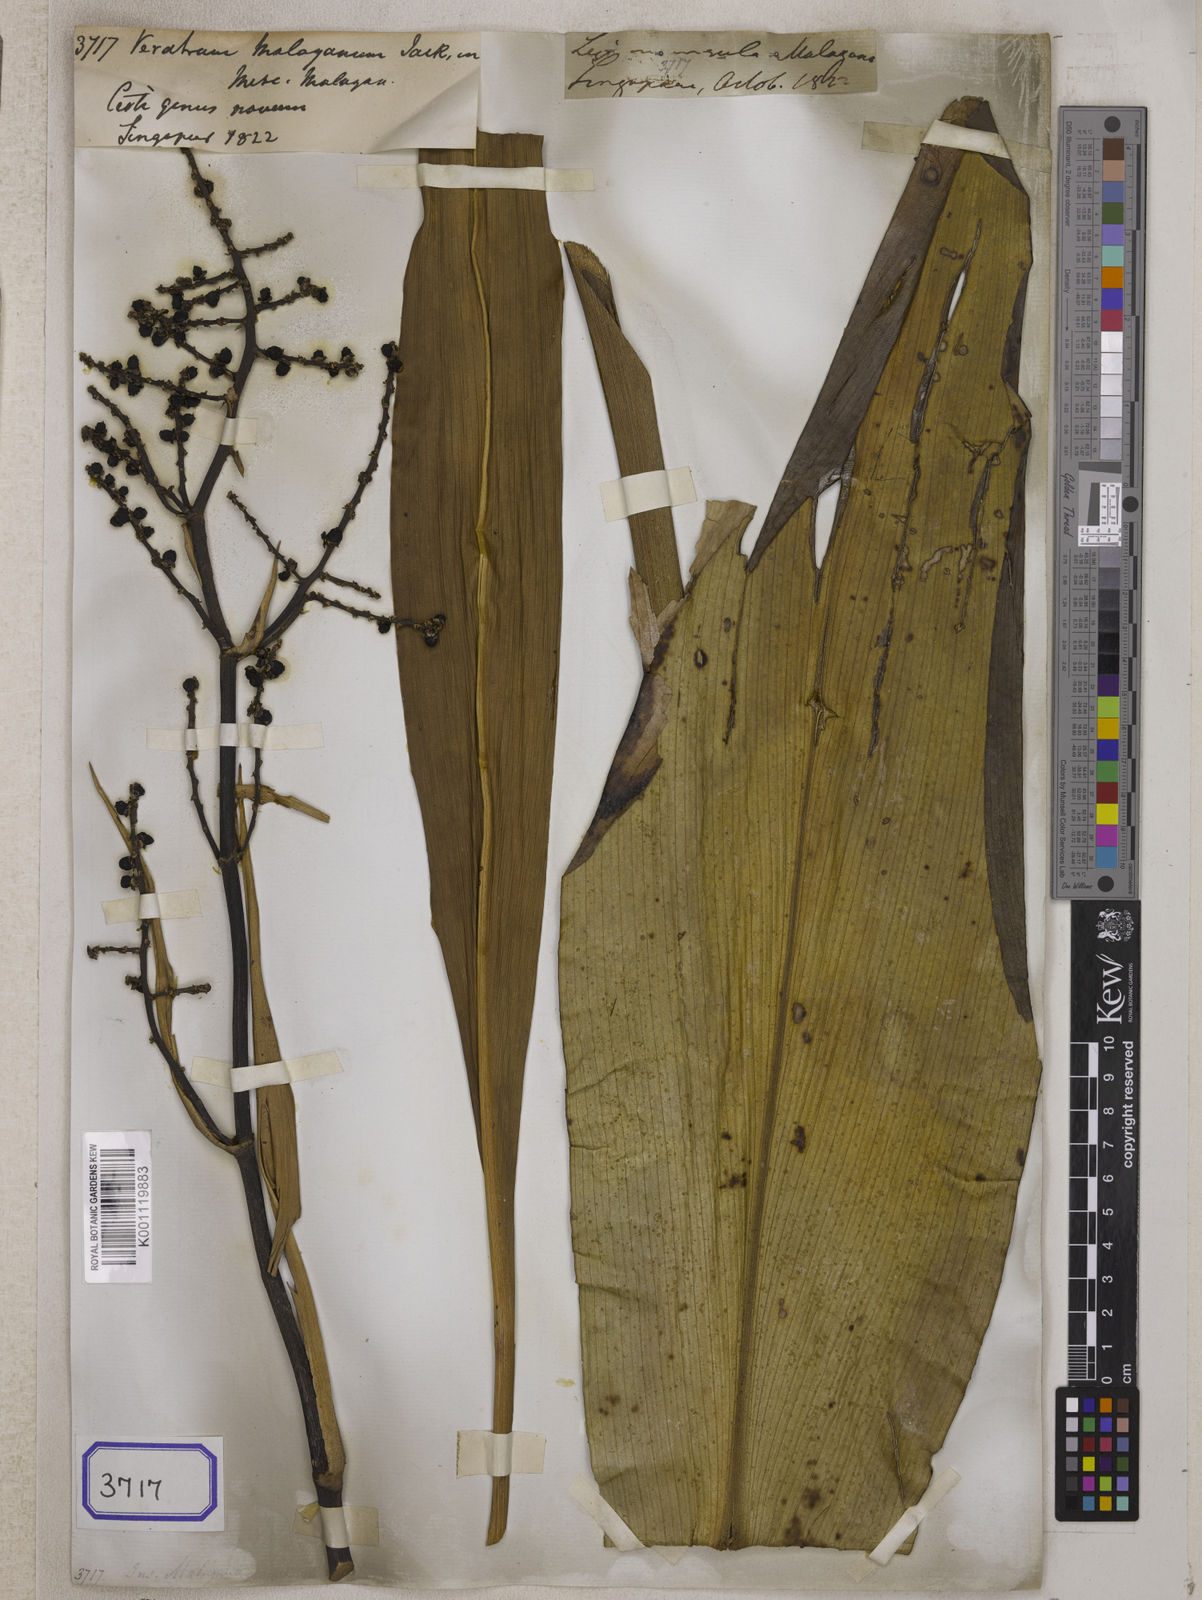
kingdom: Plantae
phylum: Tracheophyta
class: Liliopsida
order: Commelinales
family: Hanguanaceae
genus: Hanguana
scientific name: Hanguana malayana
